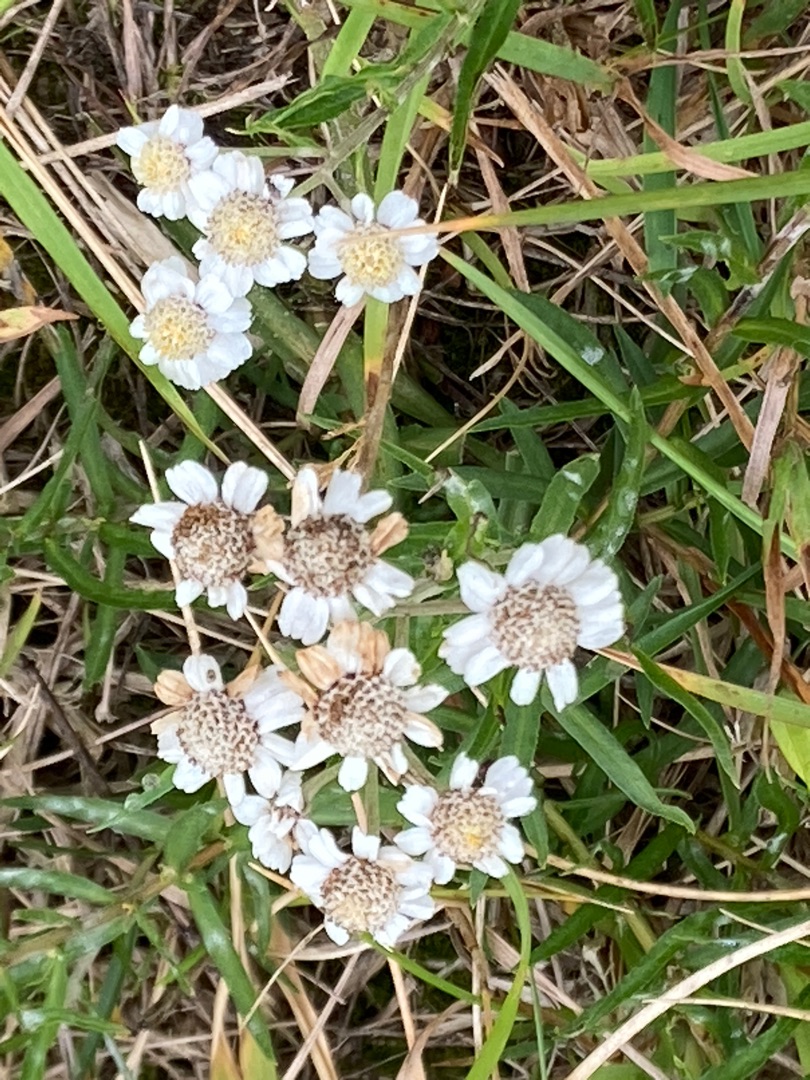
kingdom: Plantae
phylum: Tracheophyta
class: Magnoliopsida
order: Asterales
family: Asteraceae
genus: Achillea
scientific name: Achillea ptarmica
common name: Nyse-røllike
